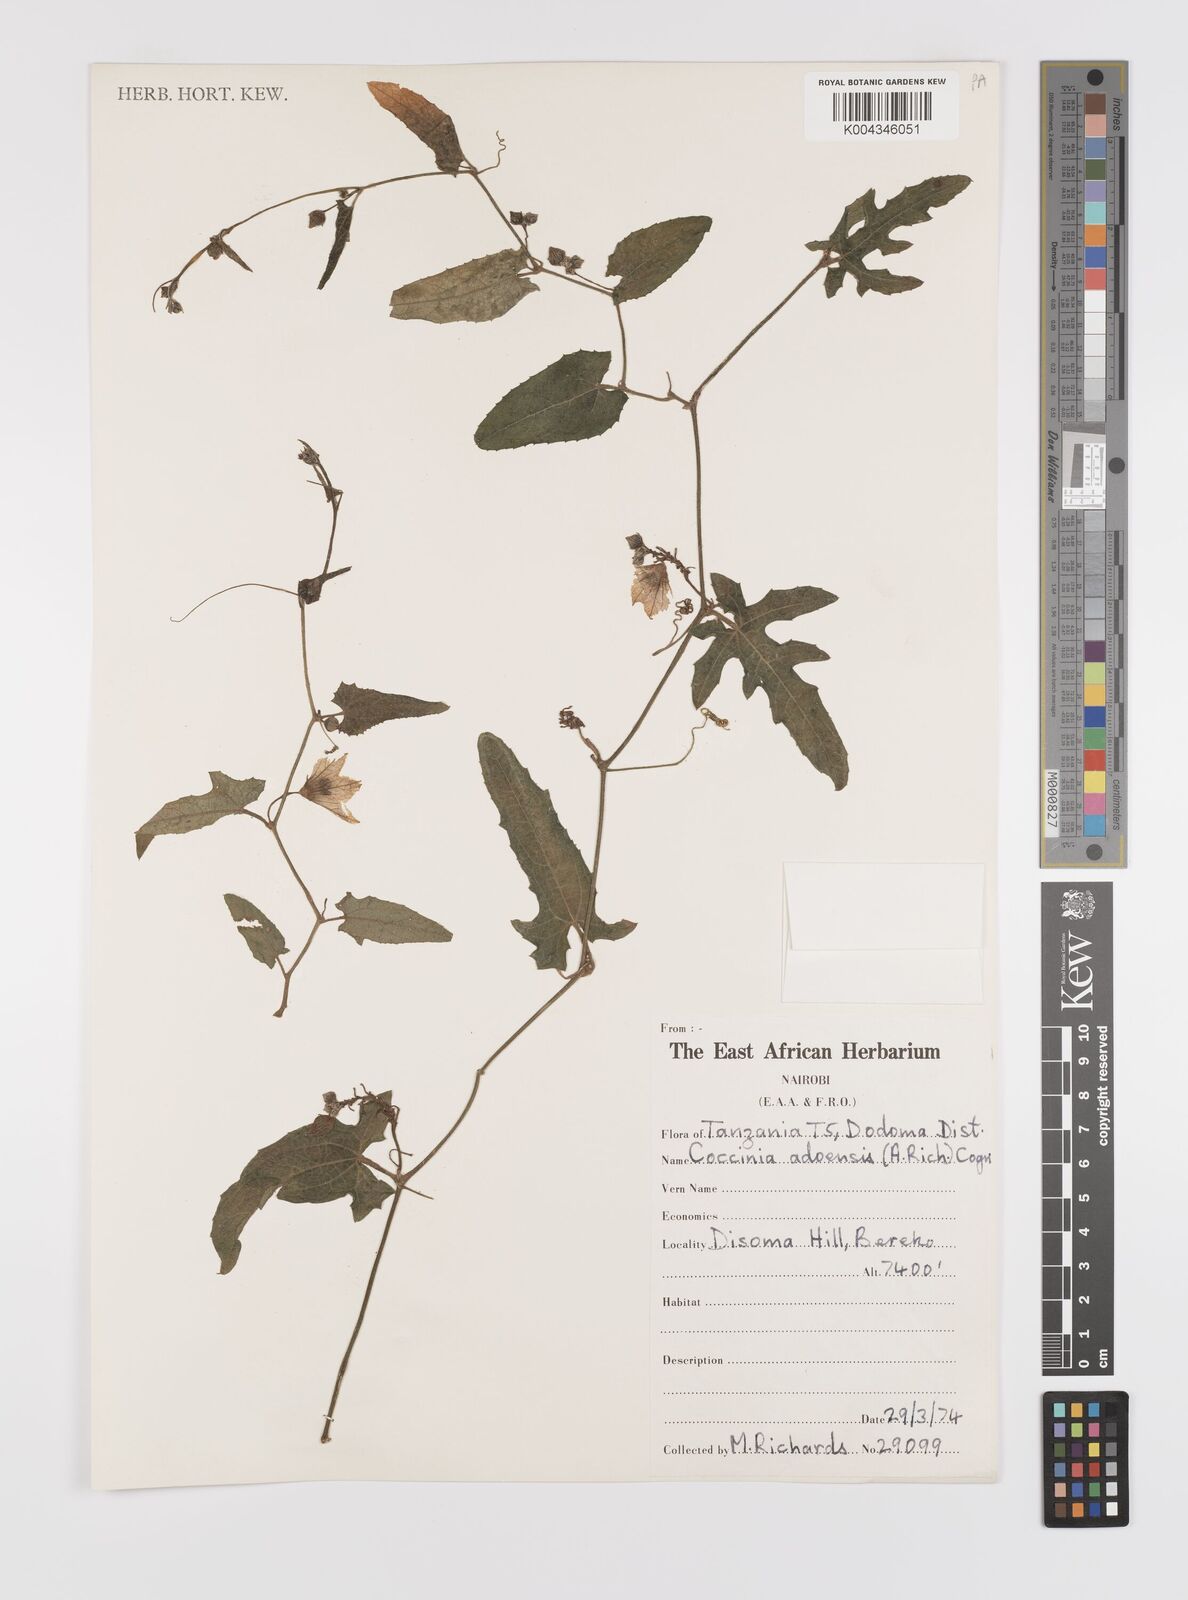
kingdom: Plantae
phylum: Tracheophyta
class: Magnoliopsida
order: Cucurbitales
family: Cucurbitaceae
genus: Coccinia
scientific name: Coccinia adoensis
